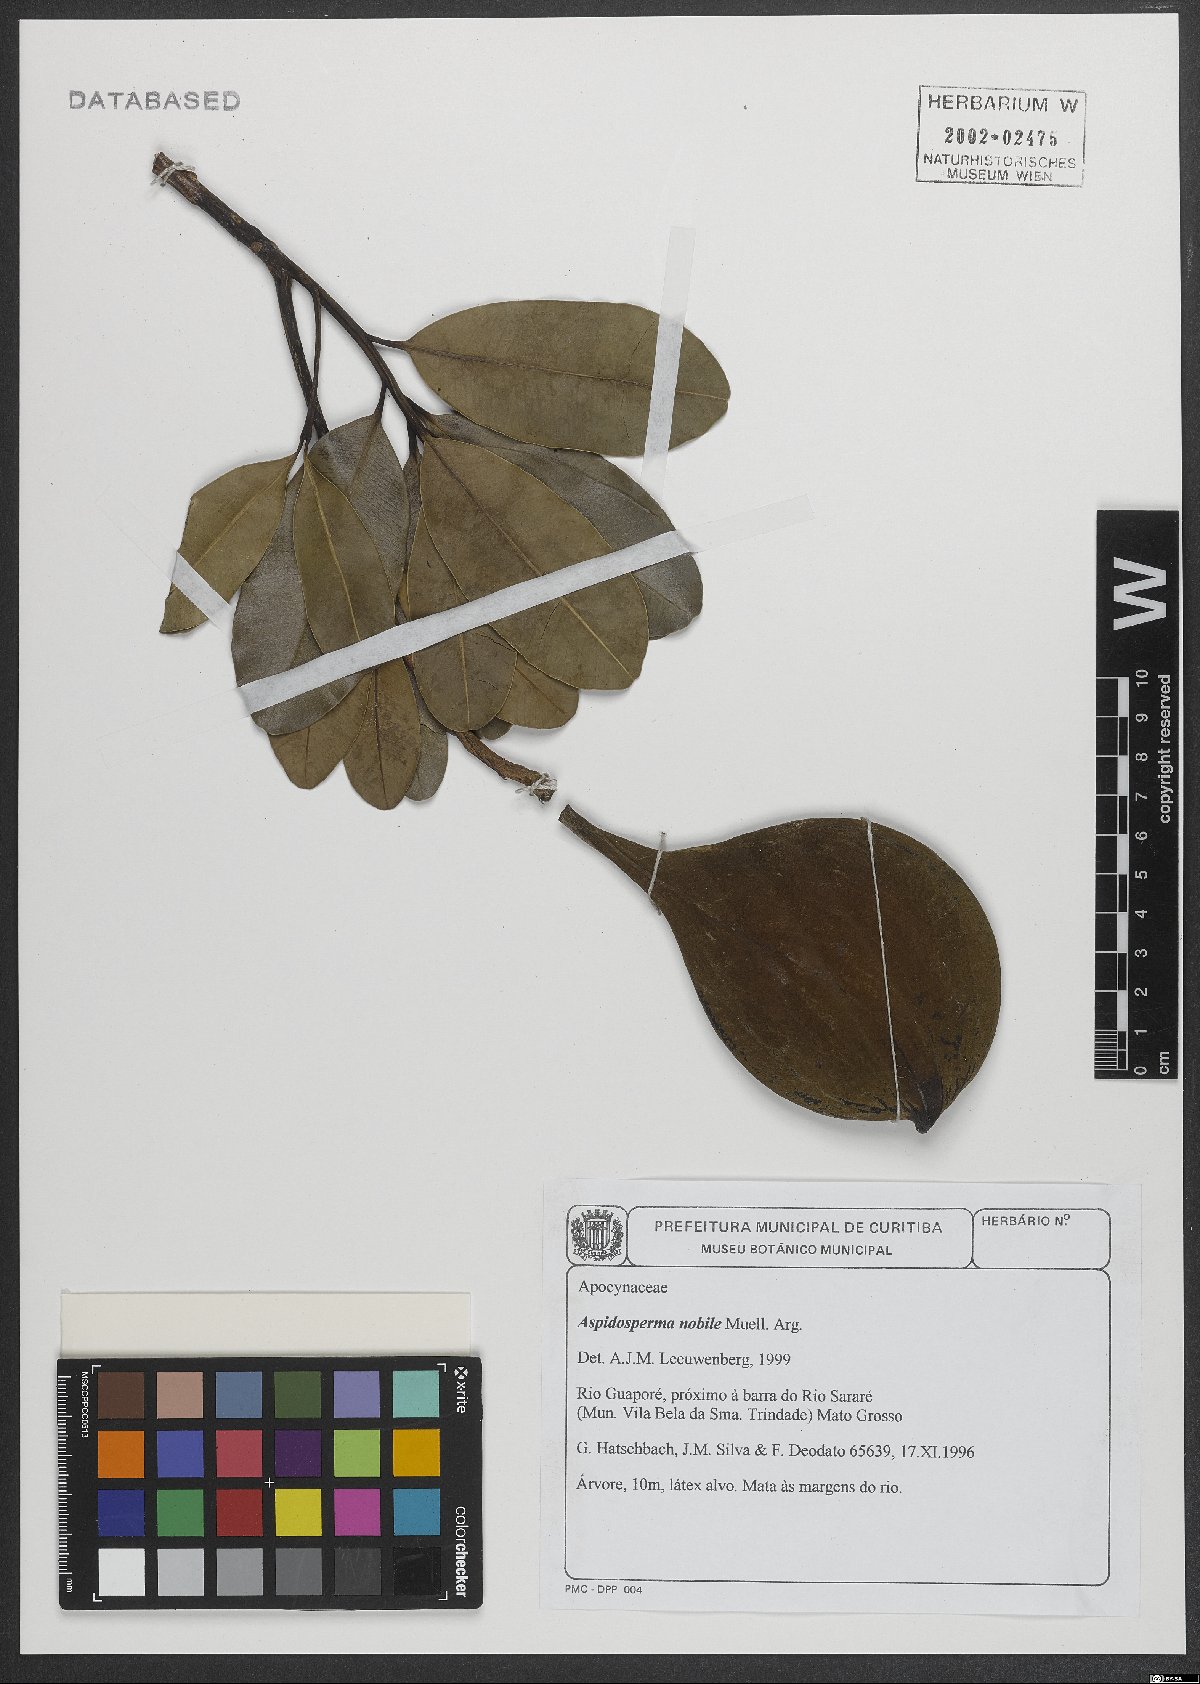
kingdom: Plantae
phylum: Tracheophyta
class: Magnoliopsida
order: Gentianales
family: Apocynaceae
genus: Aspidosperma
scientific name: Aspidosperma nobile
